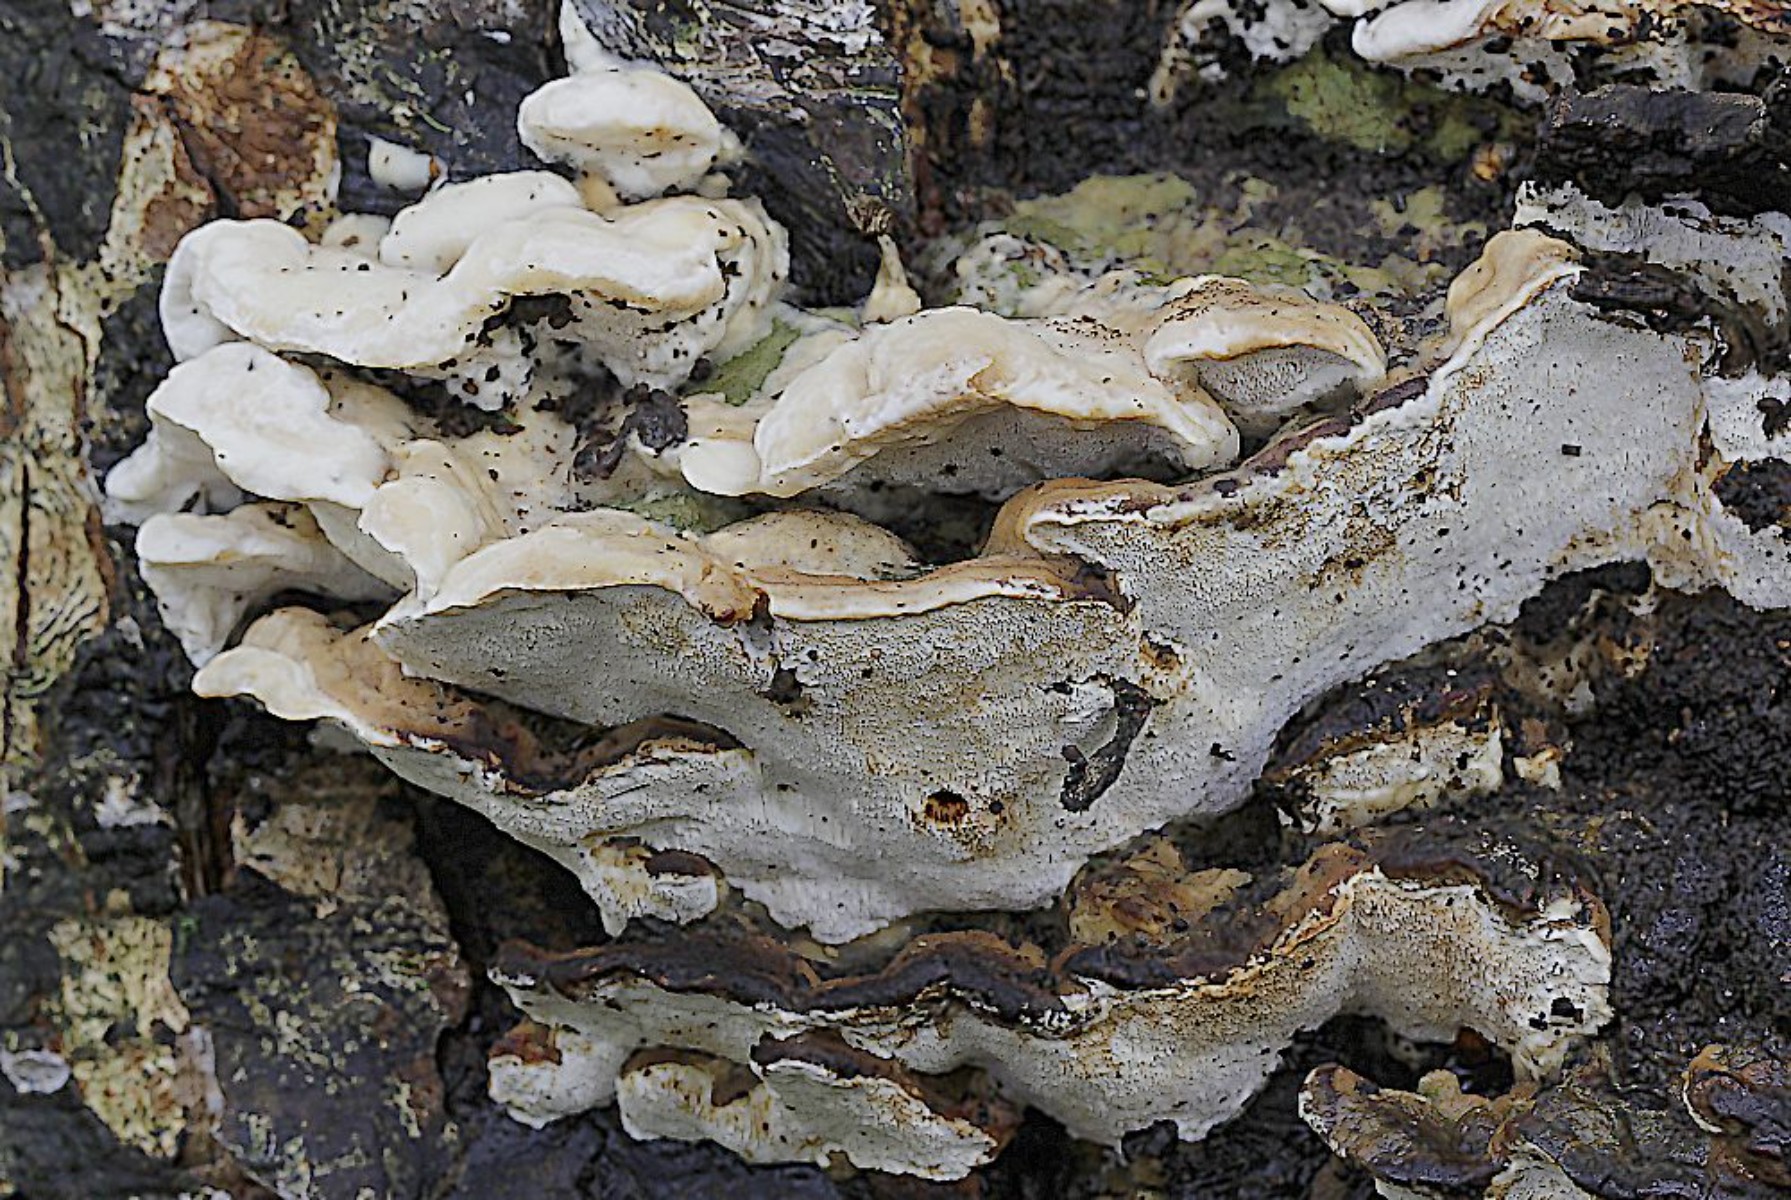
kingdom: Fungi
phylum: Basidiomycota
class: Agaricomycetes
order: Polyporales
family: Phanerochaetaceae
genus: Bjerkandera
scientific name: Bjerkandera fumosa
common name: grågul sodporesvamp
